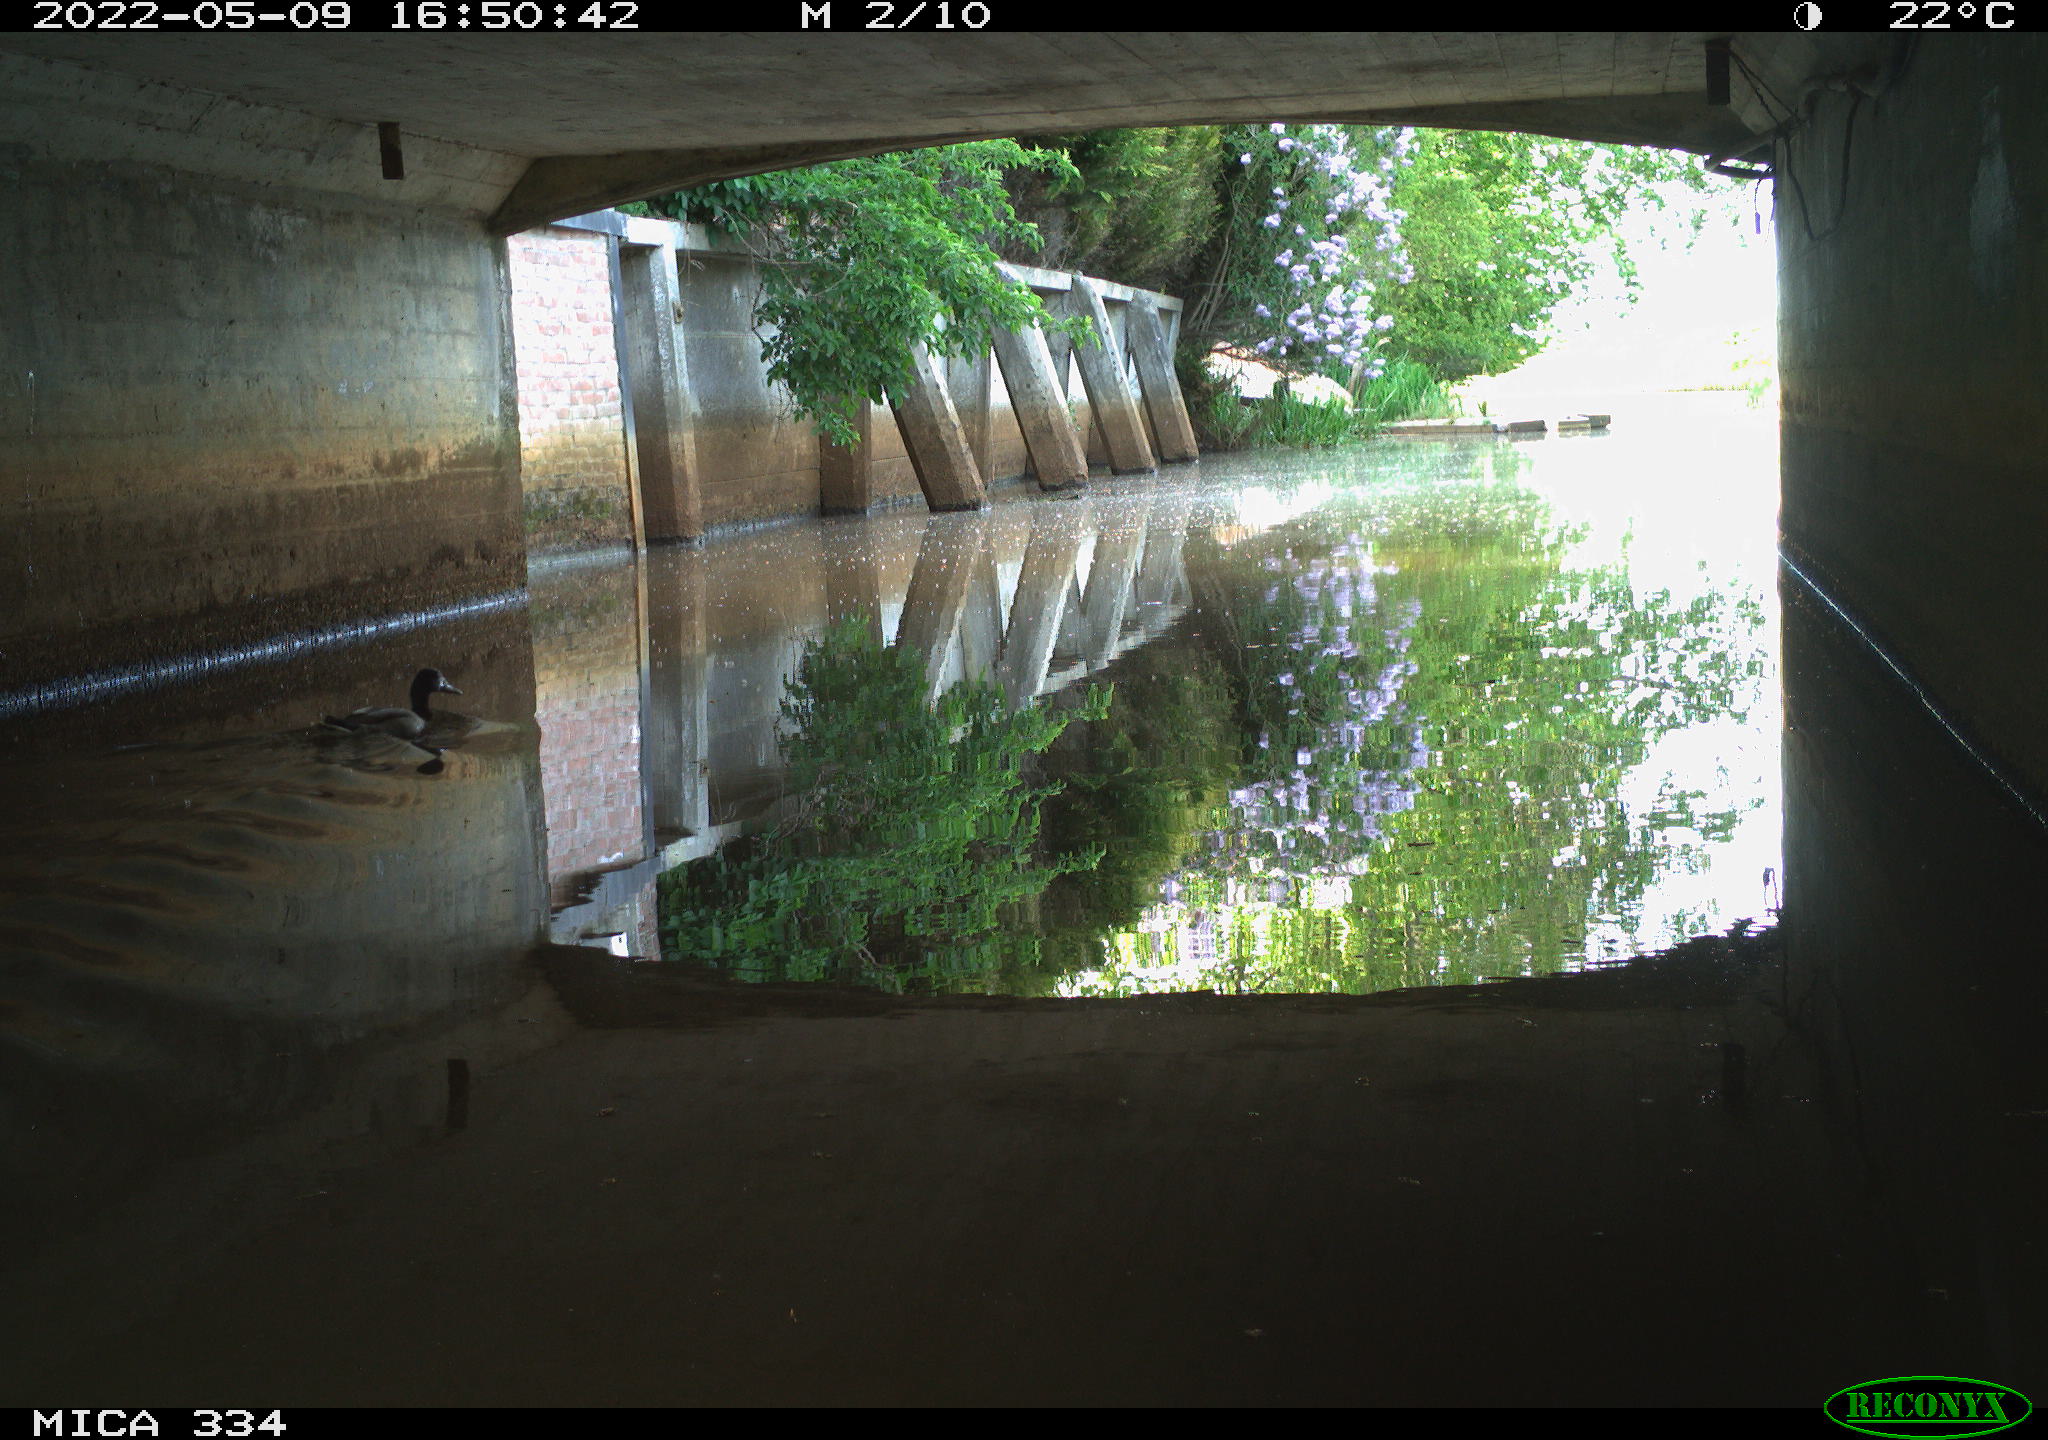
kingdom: Animalia
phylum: Chordata
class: Aves
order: Anseriformes
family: Anatidae
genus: Anas
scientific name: Anas platyrhynchos
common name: Mallard
